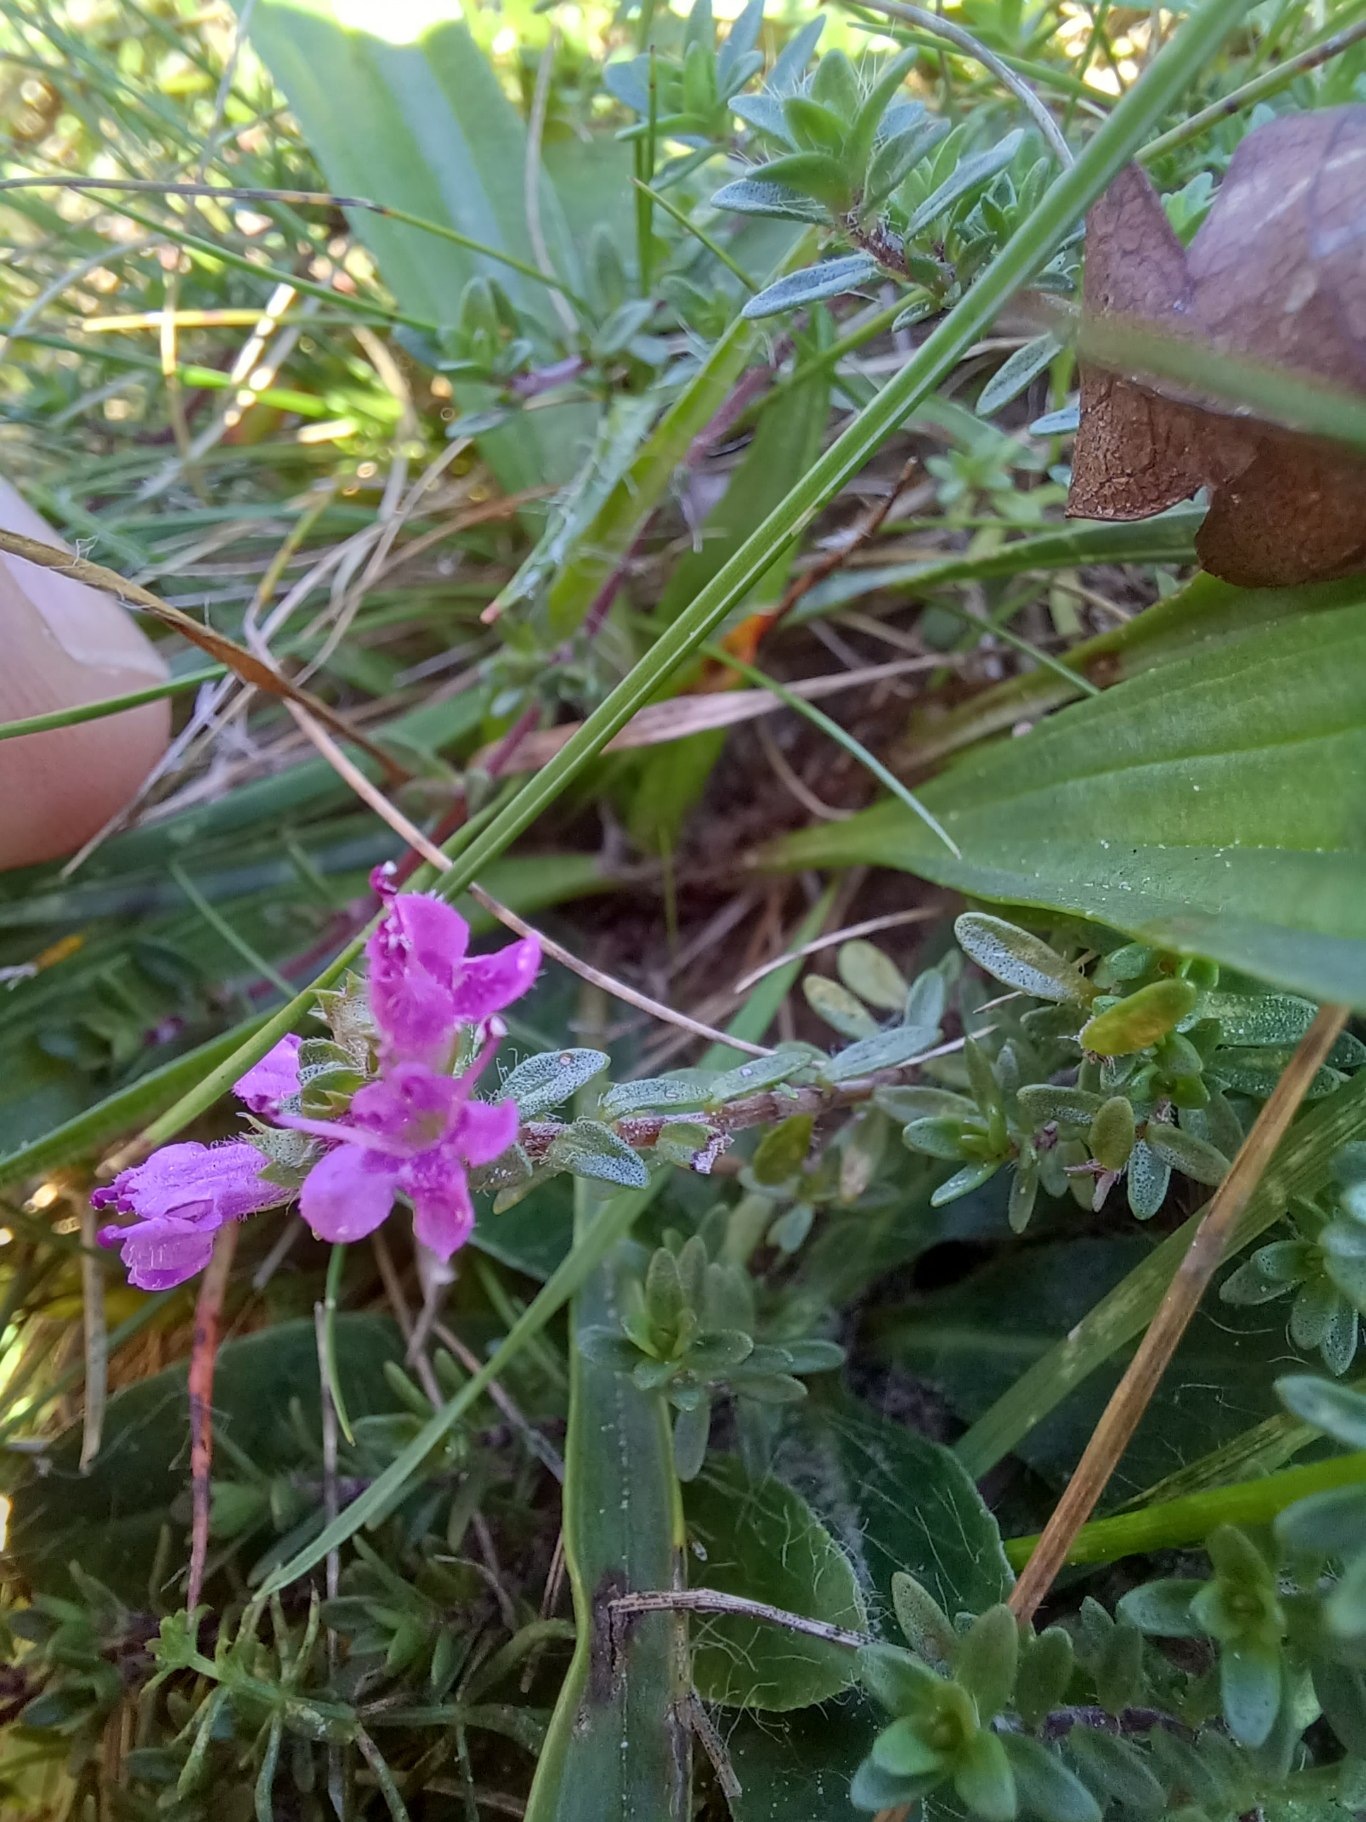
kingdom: Plantae
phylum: Tracheophyta
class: Magnoliopsida
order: Lamiales
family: Lamiaceae
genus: Thymus
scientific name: Thymus serpyllum
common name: Smalbladet timian
